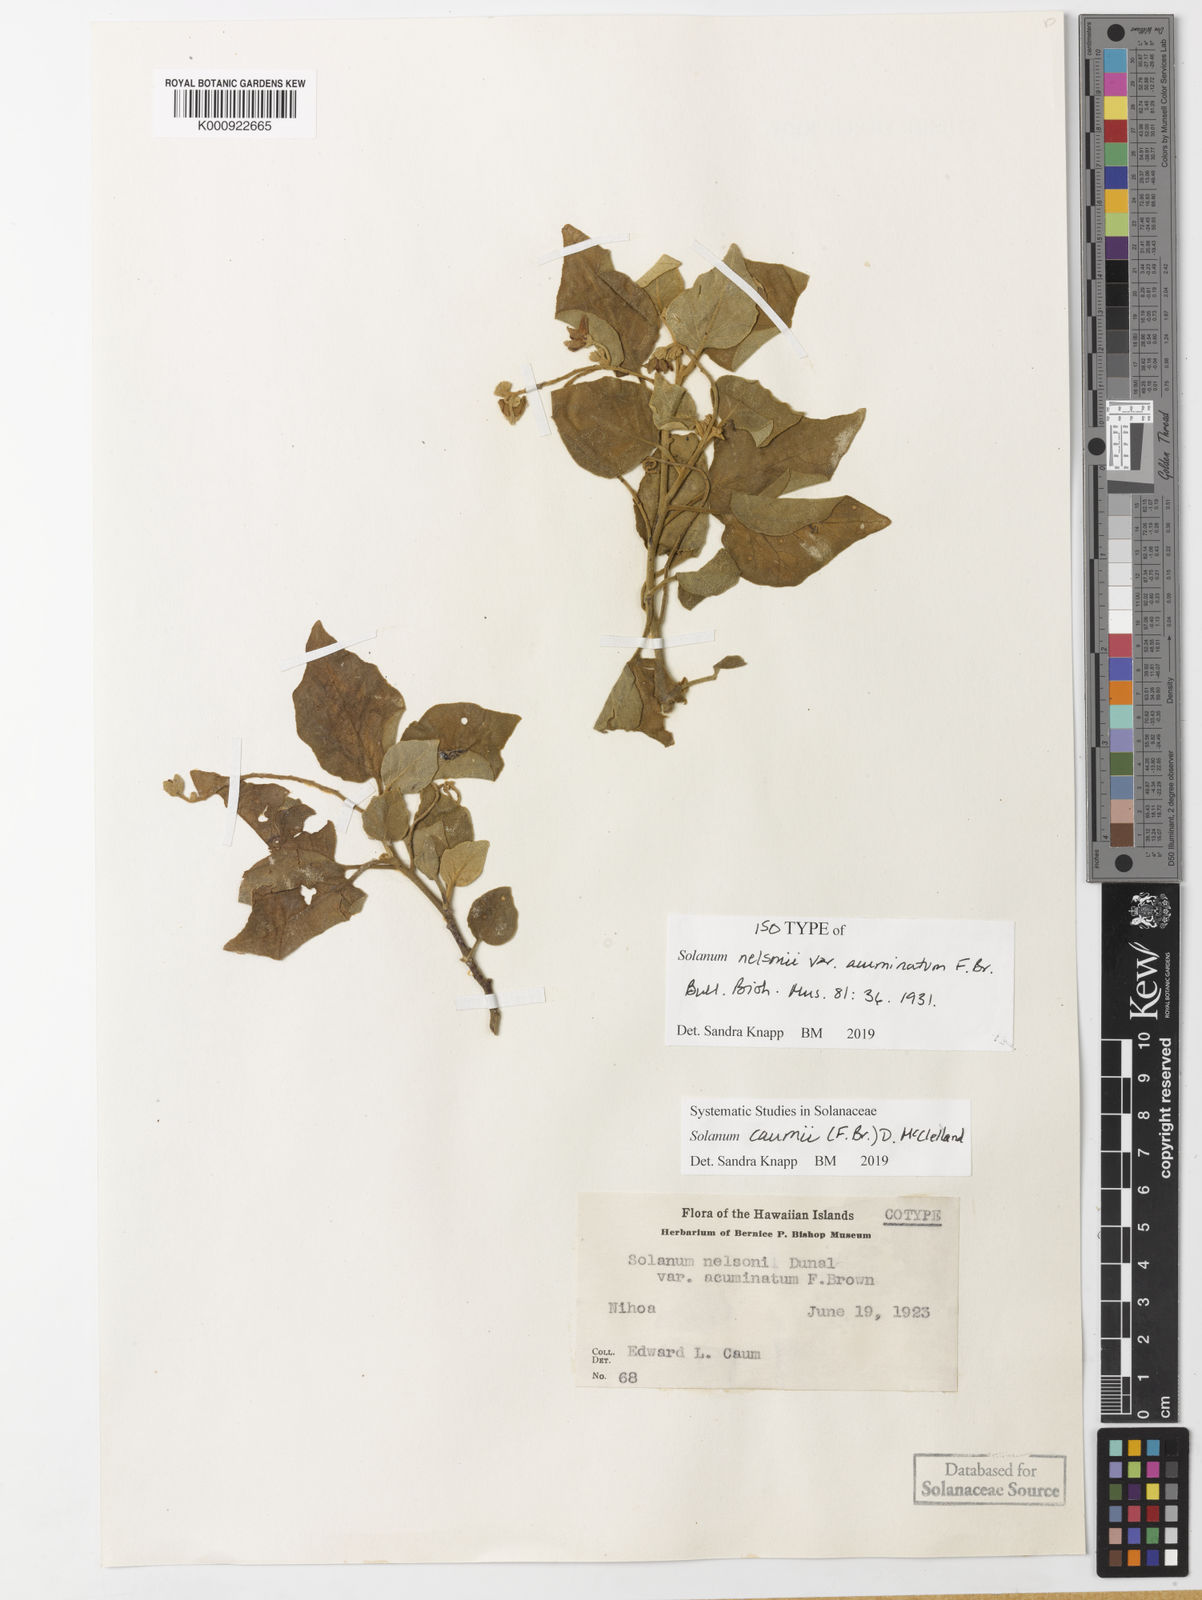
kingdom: Plantae
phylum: Tracheophyta
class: Magnoliopsida
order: Solanales
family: Solanaceae
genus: Solanum
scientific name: Solanum oxycarpum
